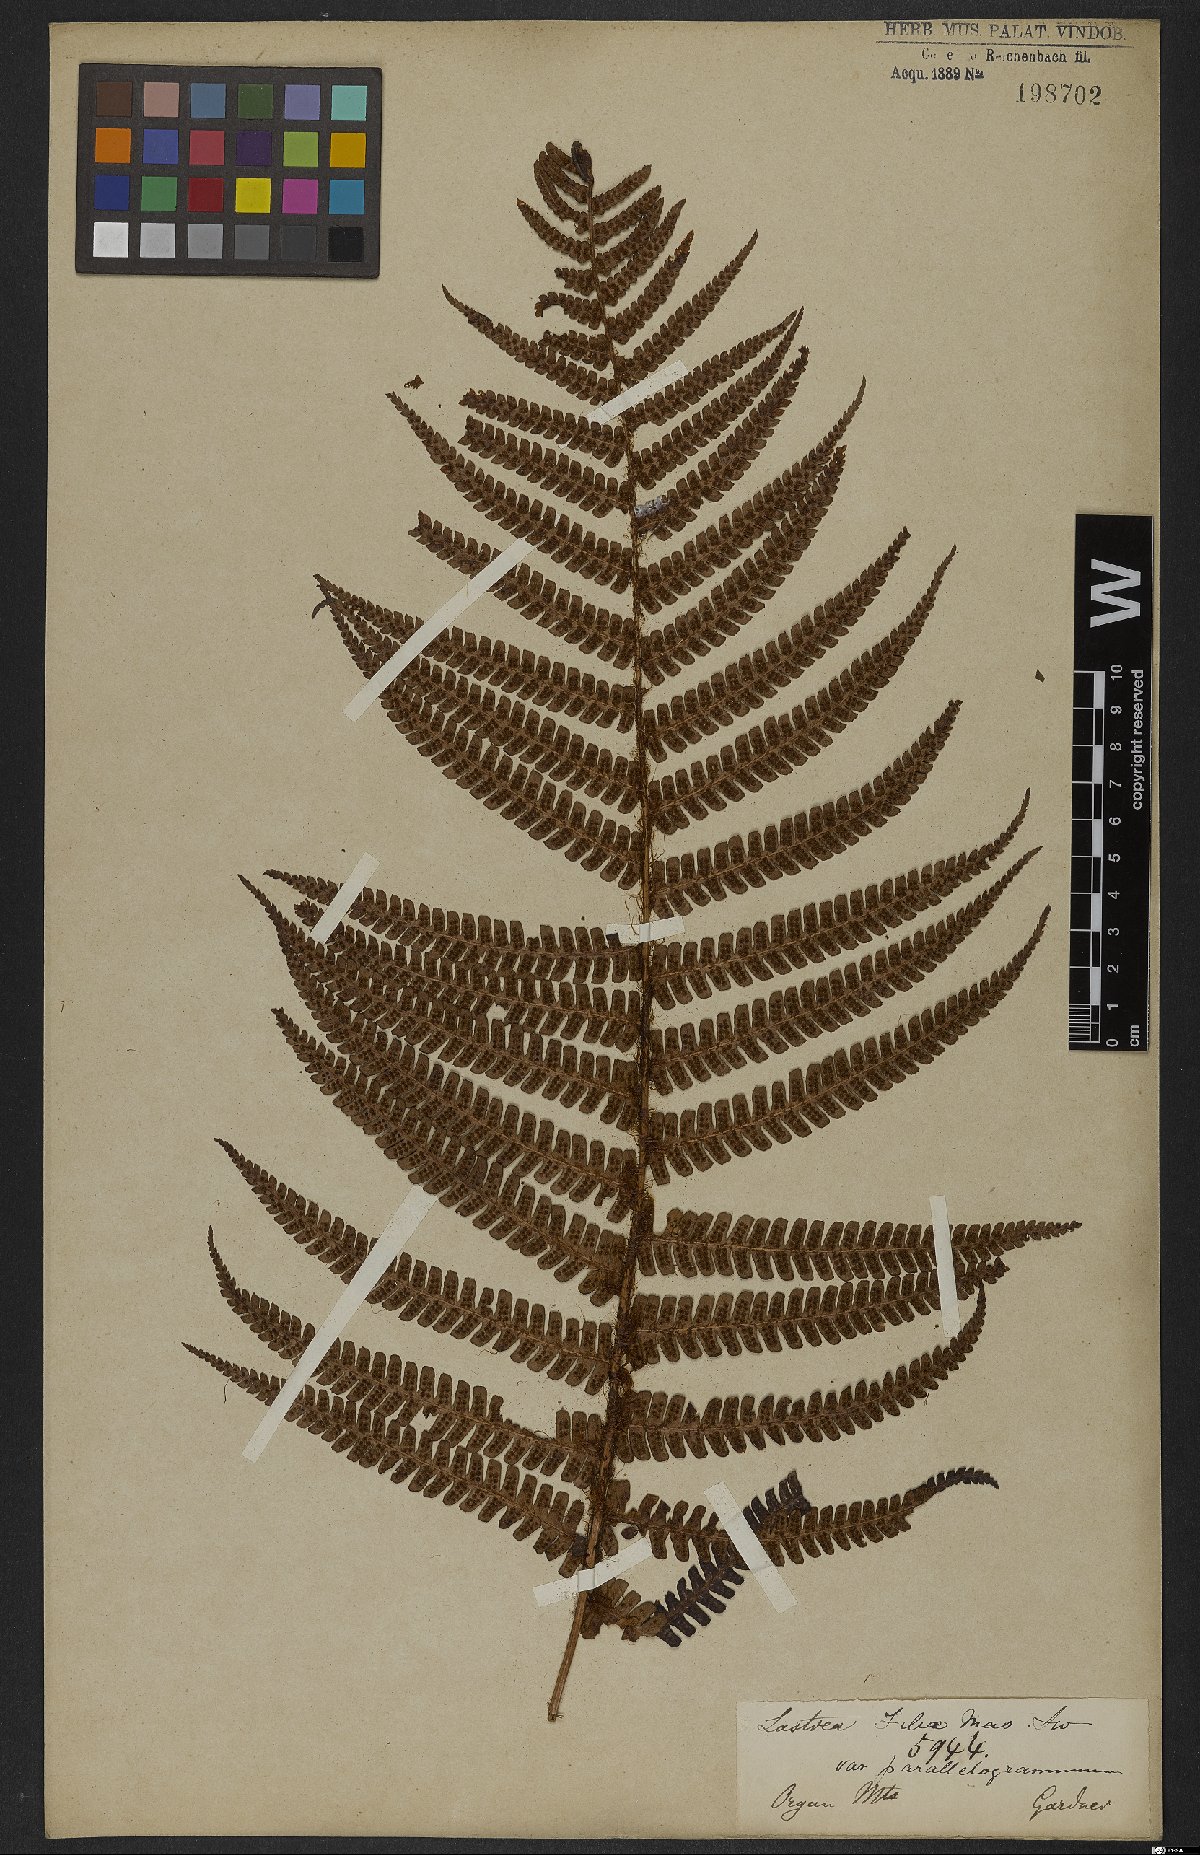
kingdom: Plantae
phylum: Tracheophyta
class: Polypodiopsida
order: Polypodiales
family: Dryopteridaceae
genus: Dryopteris
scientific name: Dryopteris wallichiana
